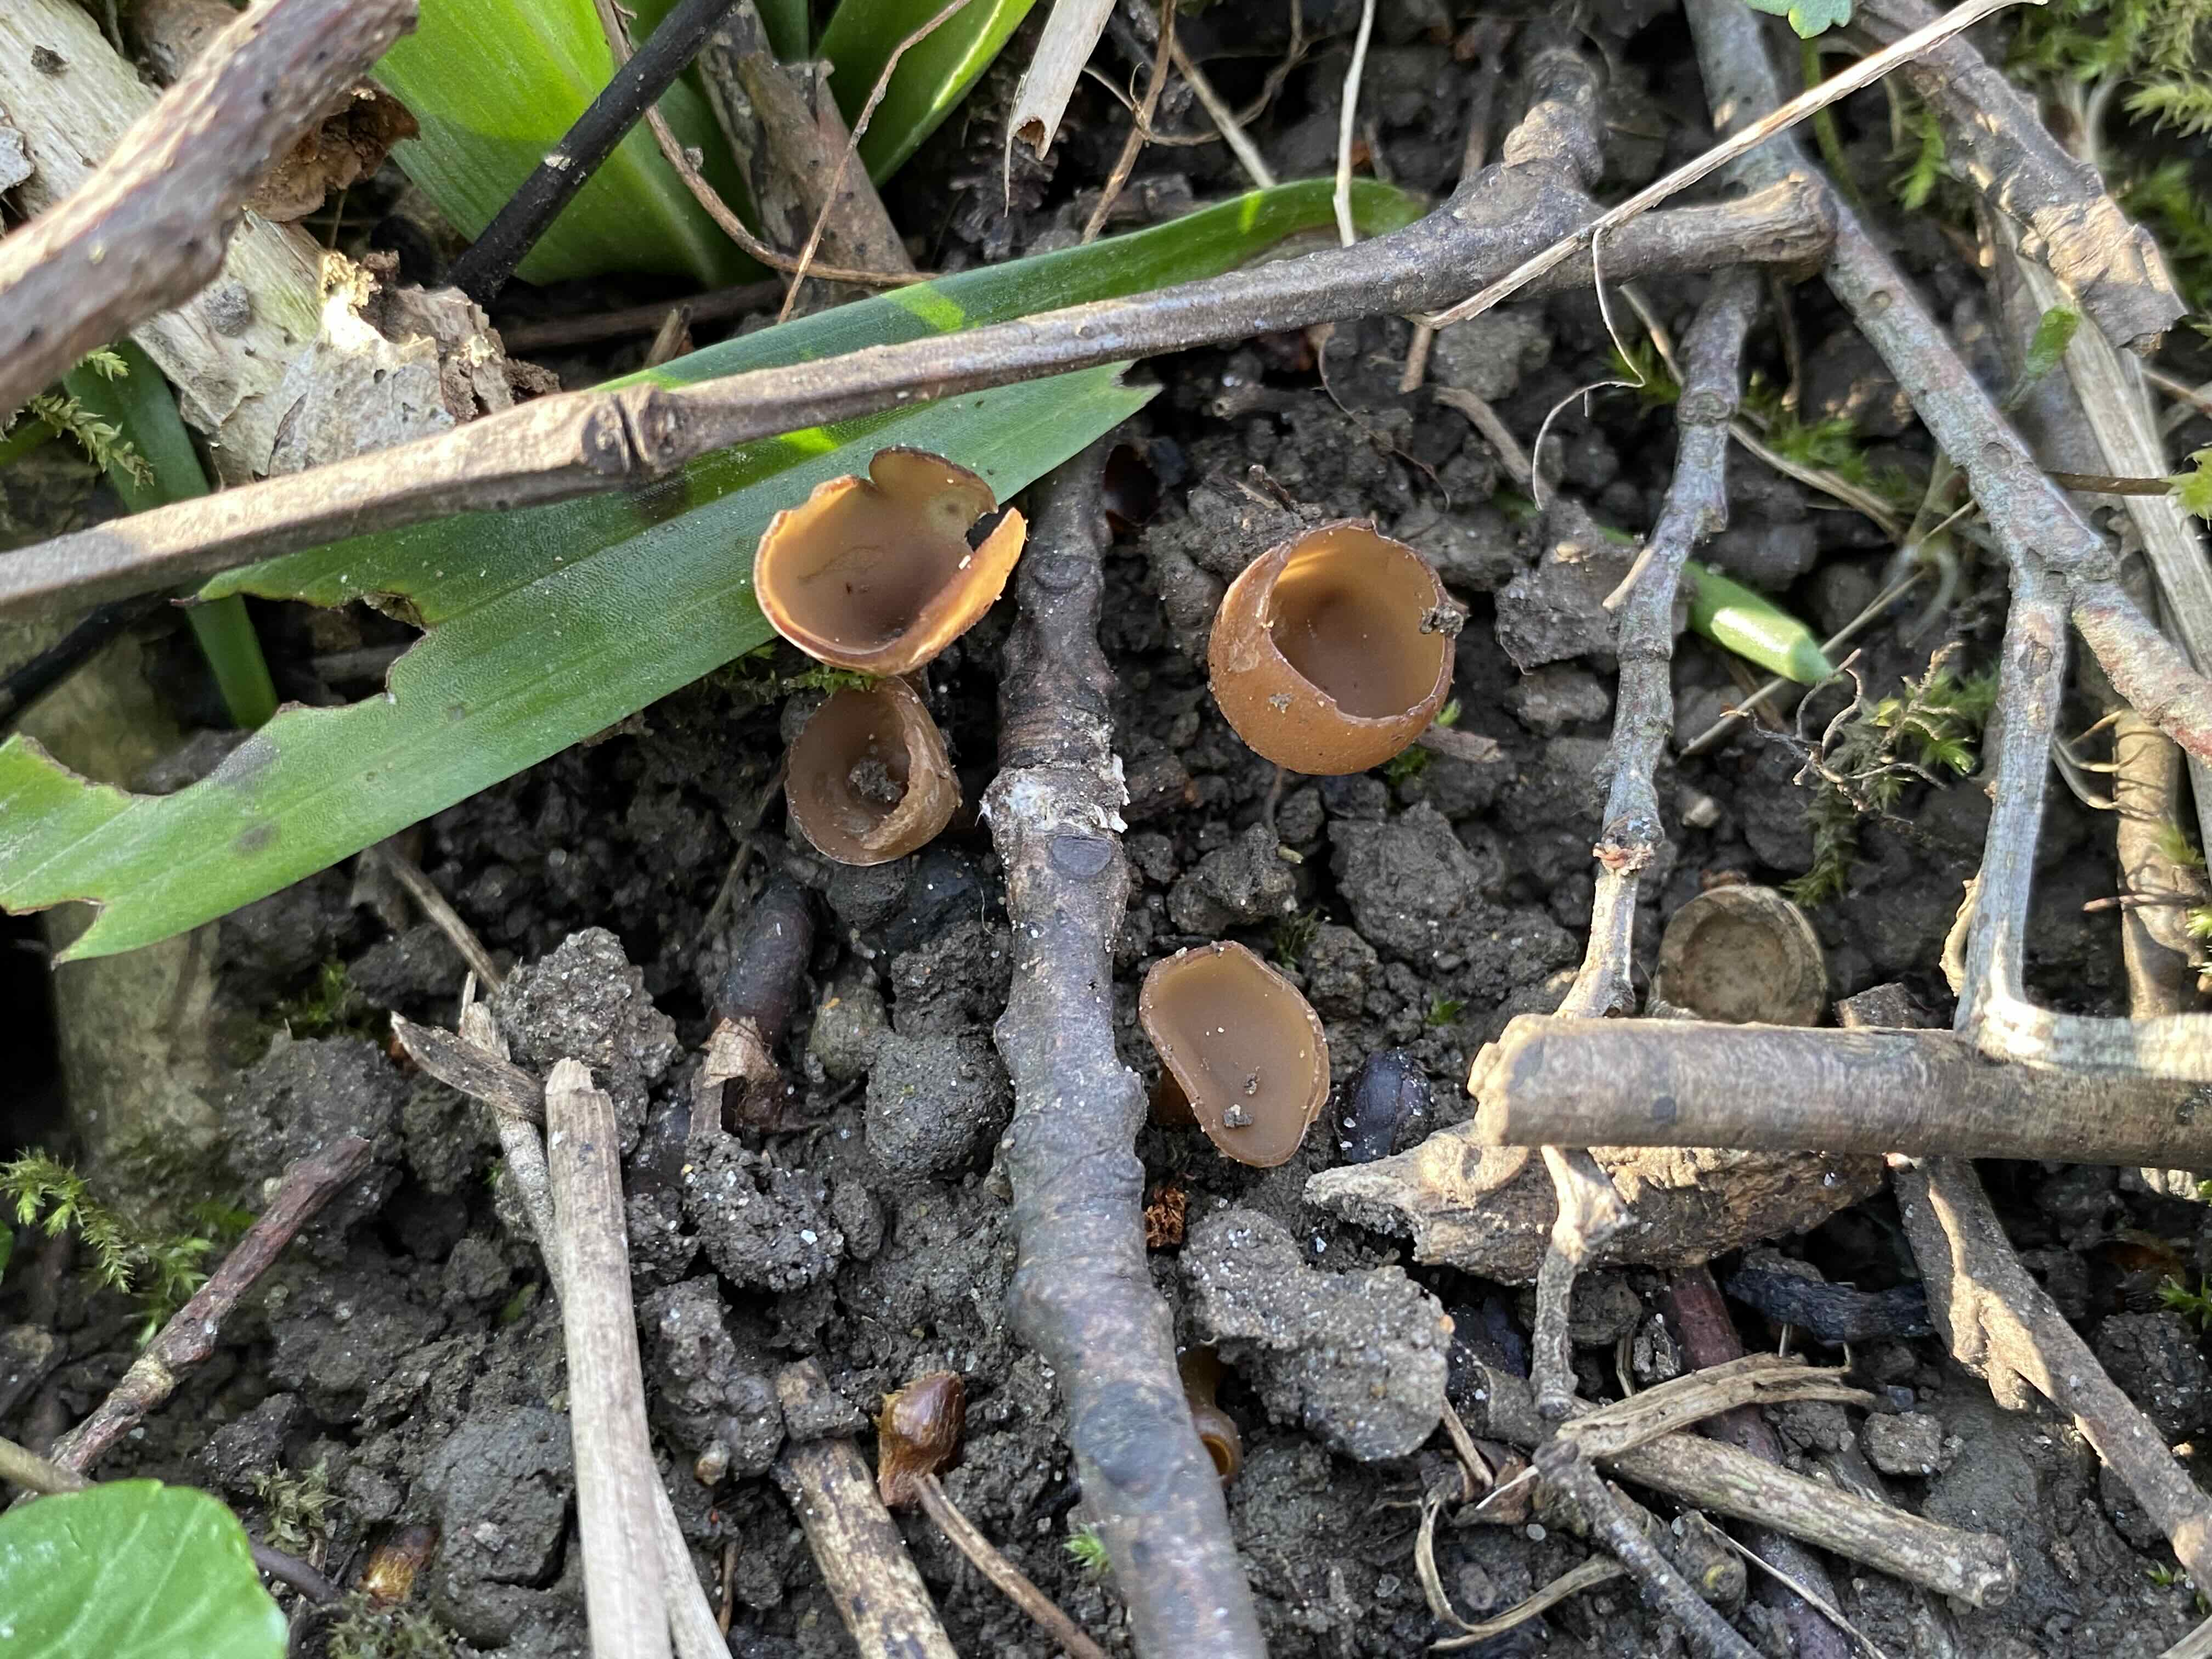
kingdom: Fungi
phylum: Ascomycota
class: Leotiomycetes
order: Helotiales
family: Sclerotiniaceae
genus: Dumontinia
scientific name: Dumontinia tuberosa
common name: anemone-knoldskive
